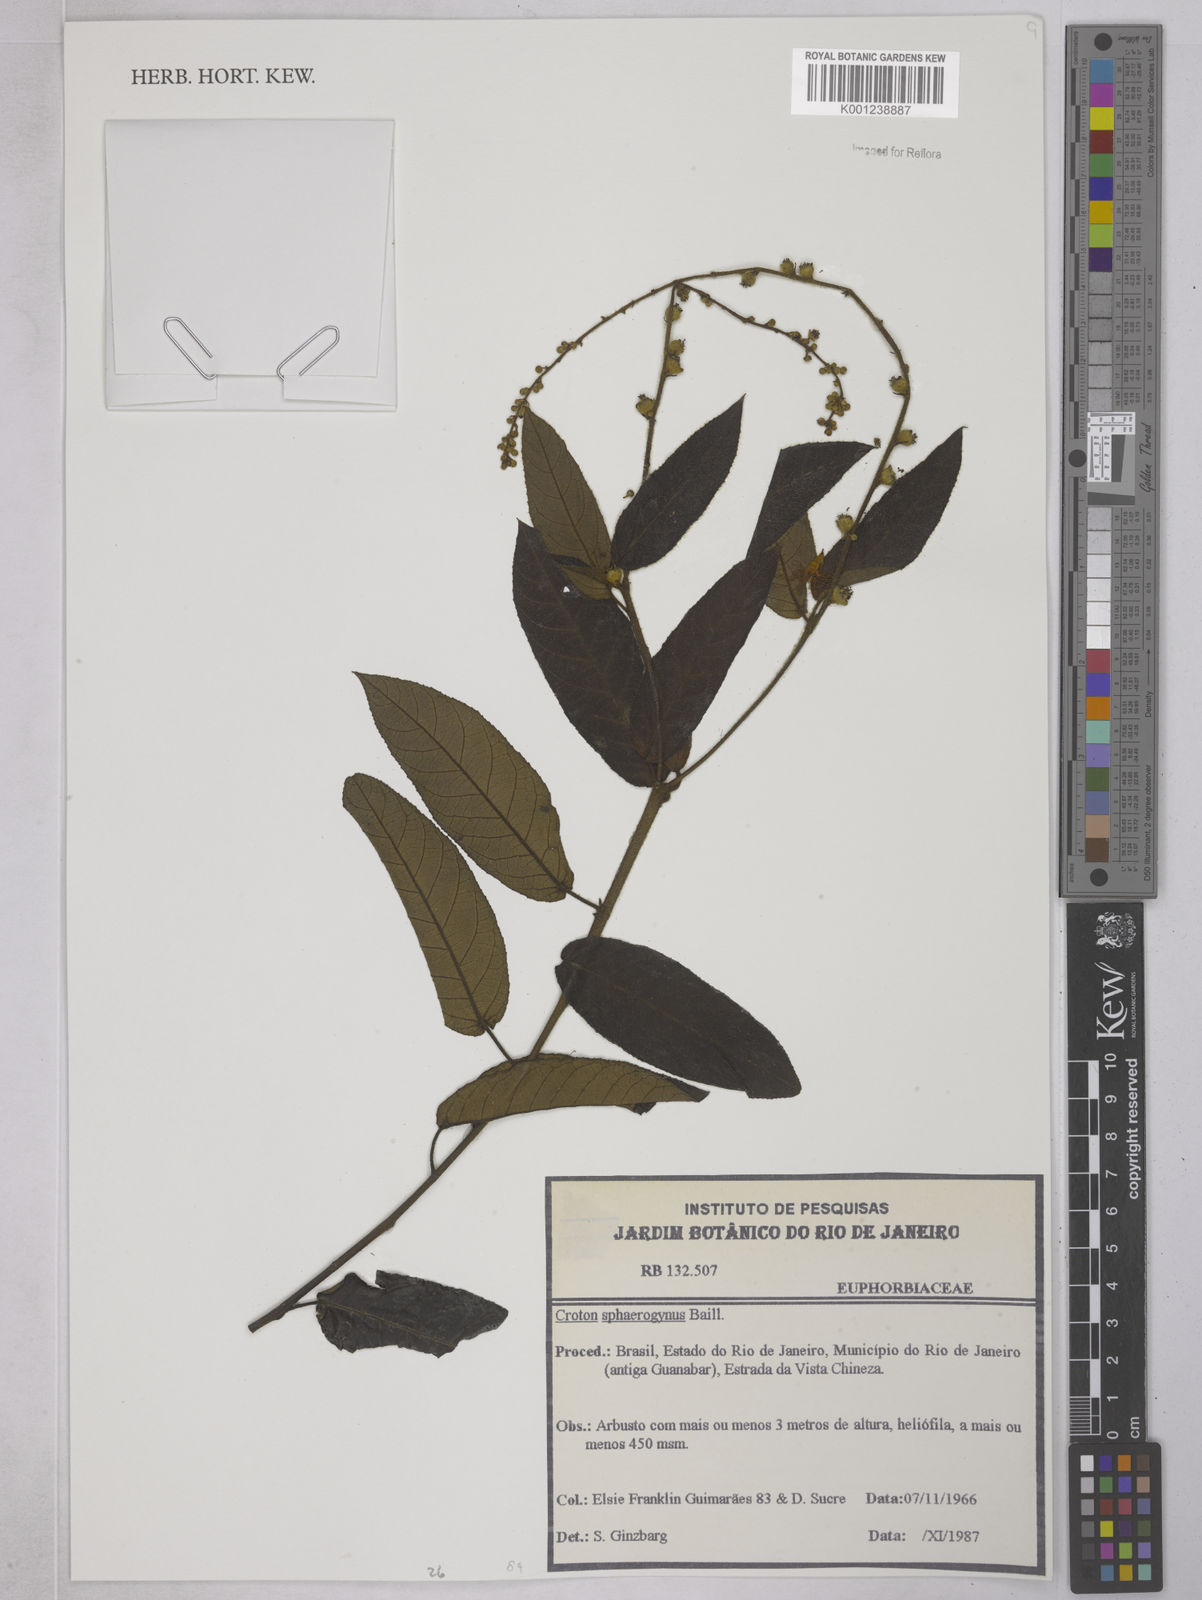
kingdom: Plantae
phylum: Tracheophyta
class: Magnoliopsida
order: Malpighiales
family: Euphorbiaceae
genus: Croton
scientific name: Croton sphaerogynus
